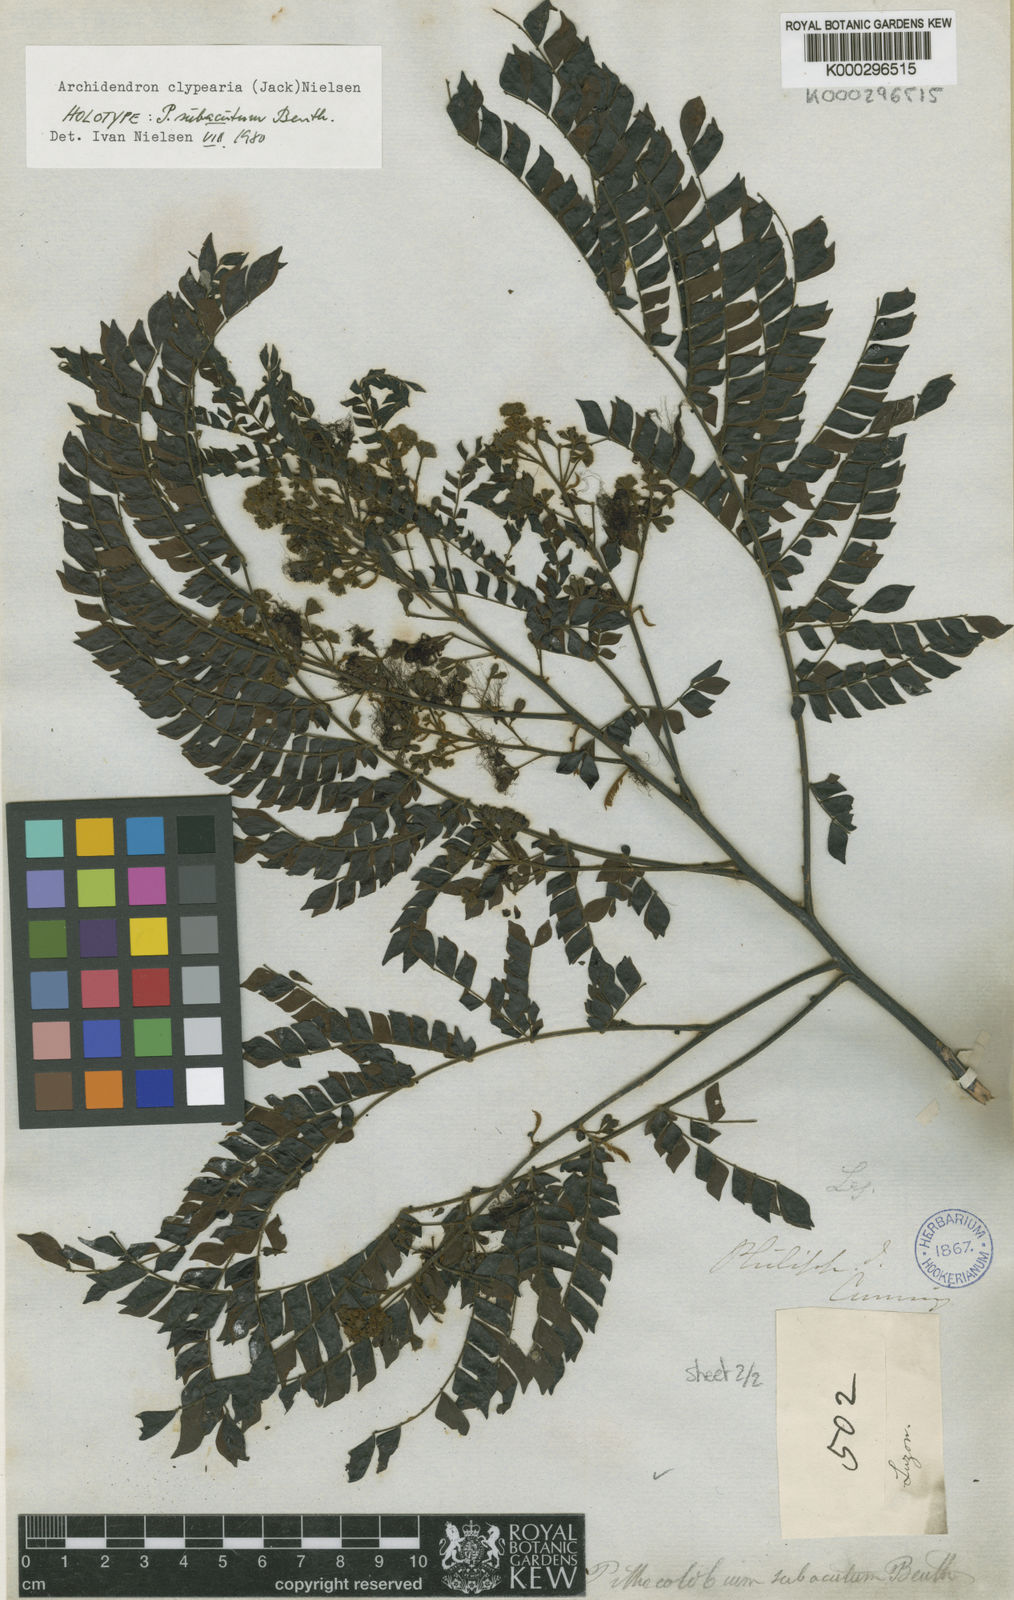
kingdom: Plantae
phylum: Tracheophyta
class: Magnoliopsida
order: Fabales
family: Fabaceae
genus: Archidendron
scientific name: Archidendron clypearia
